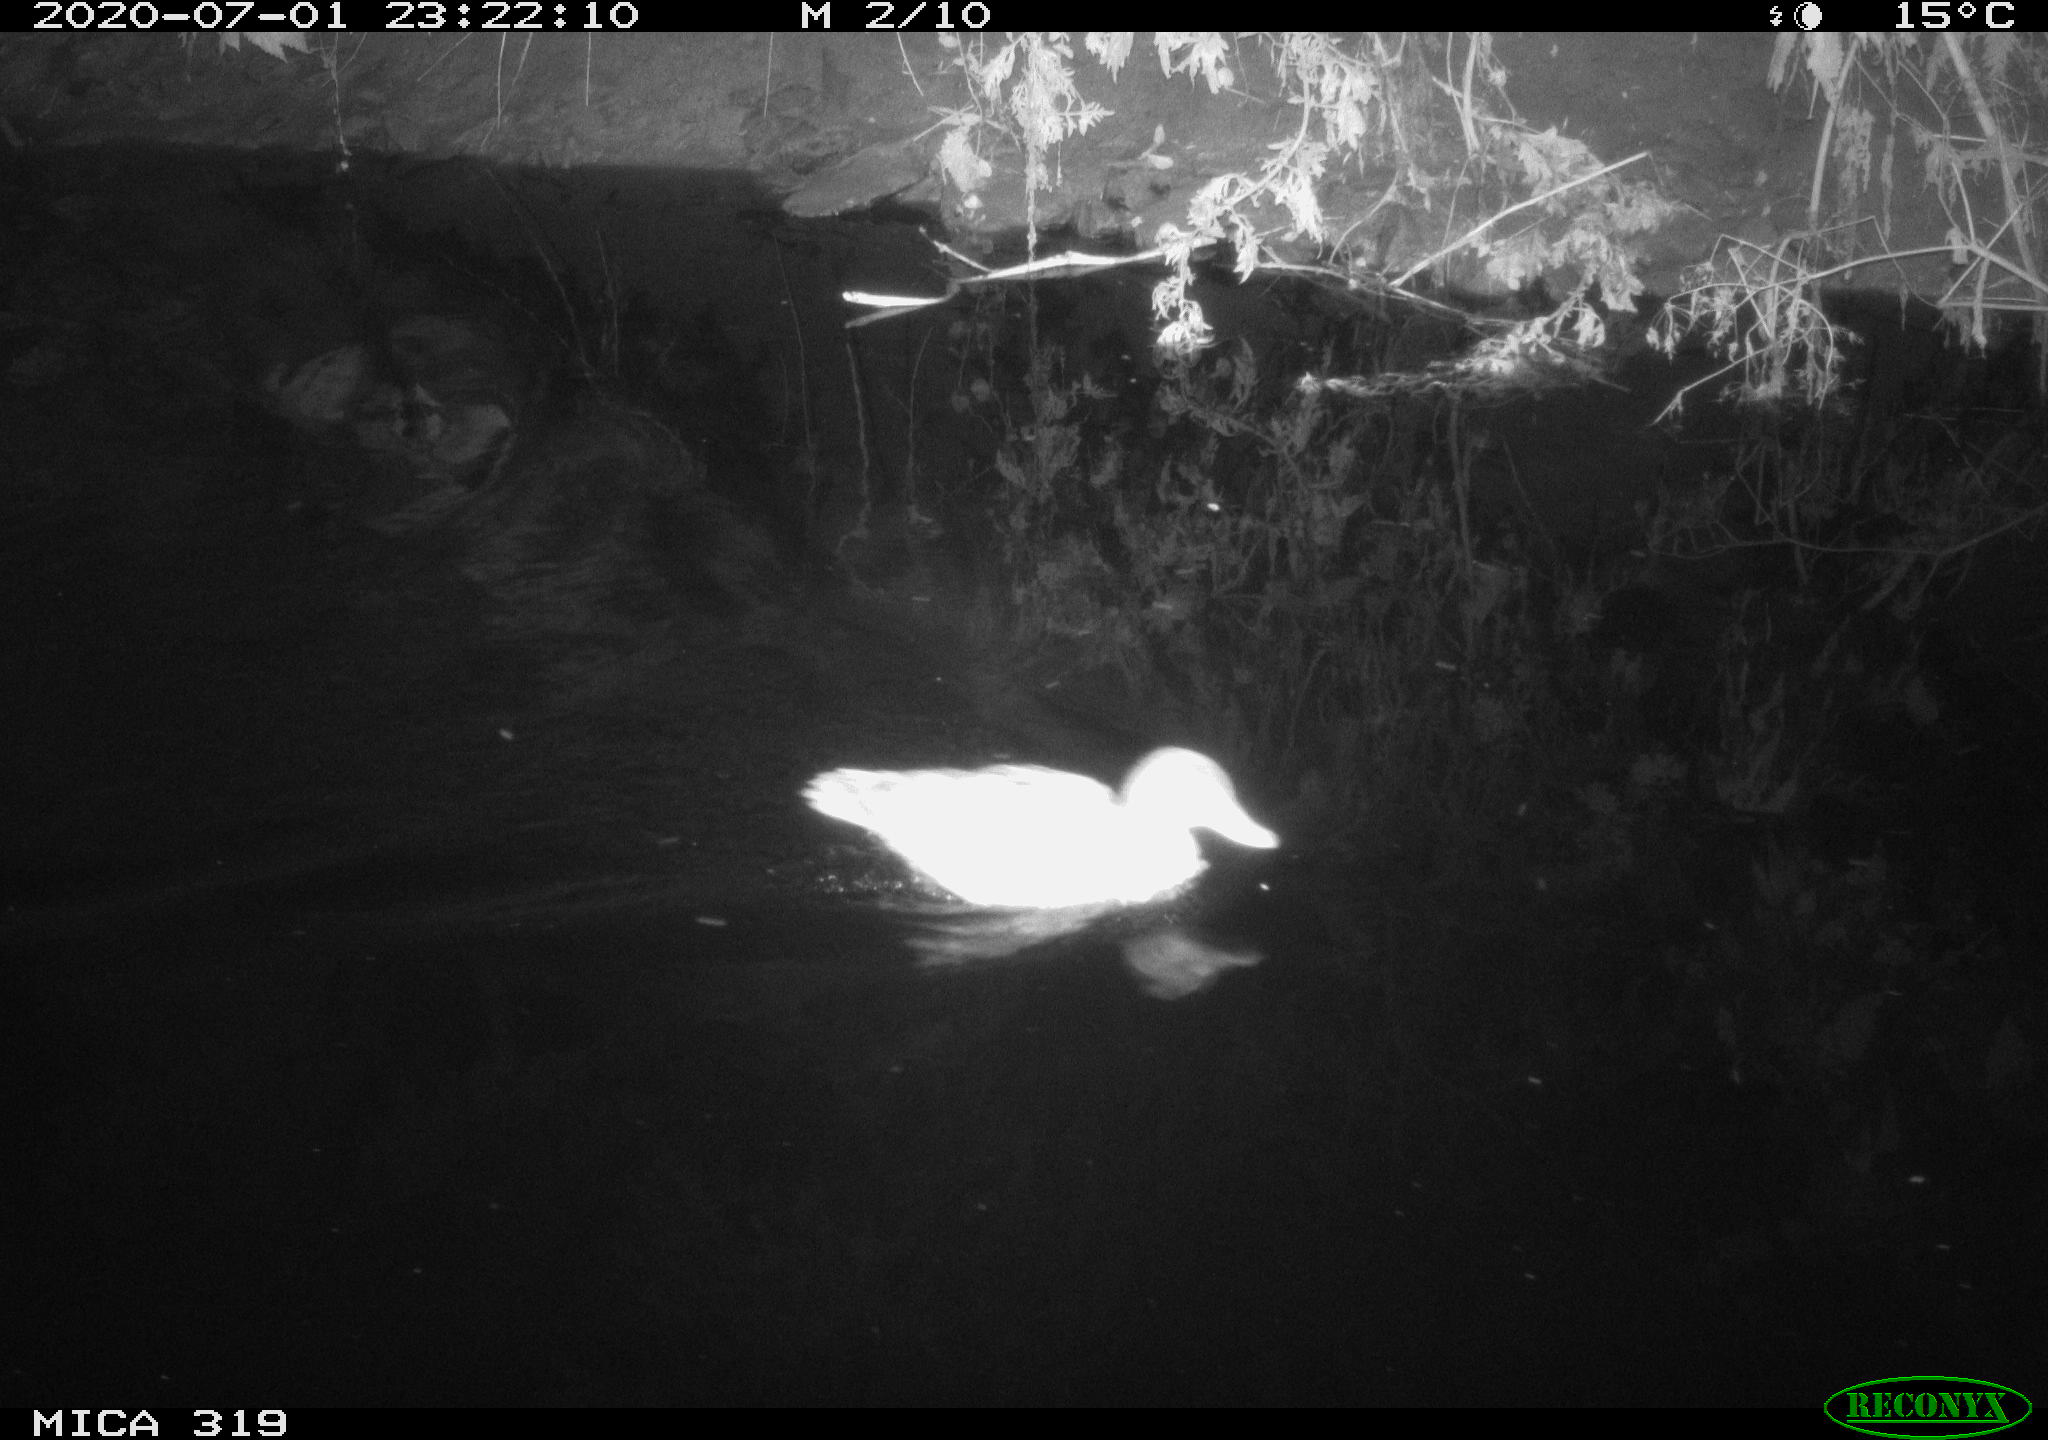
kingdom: Animalia
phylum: Chordata
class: Aves
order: Anseriformes
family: Anatidae
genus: Anas
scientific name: Anas platyrhynchos
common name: Mallard
